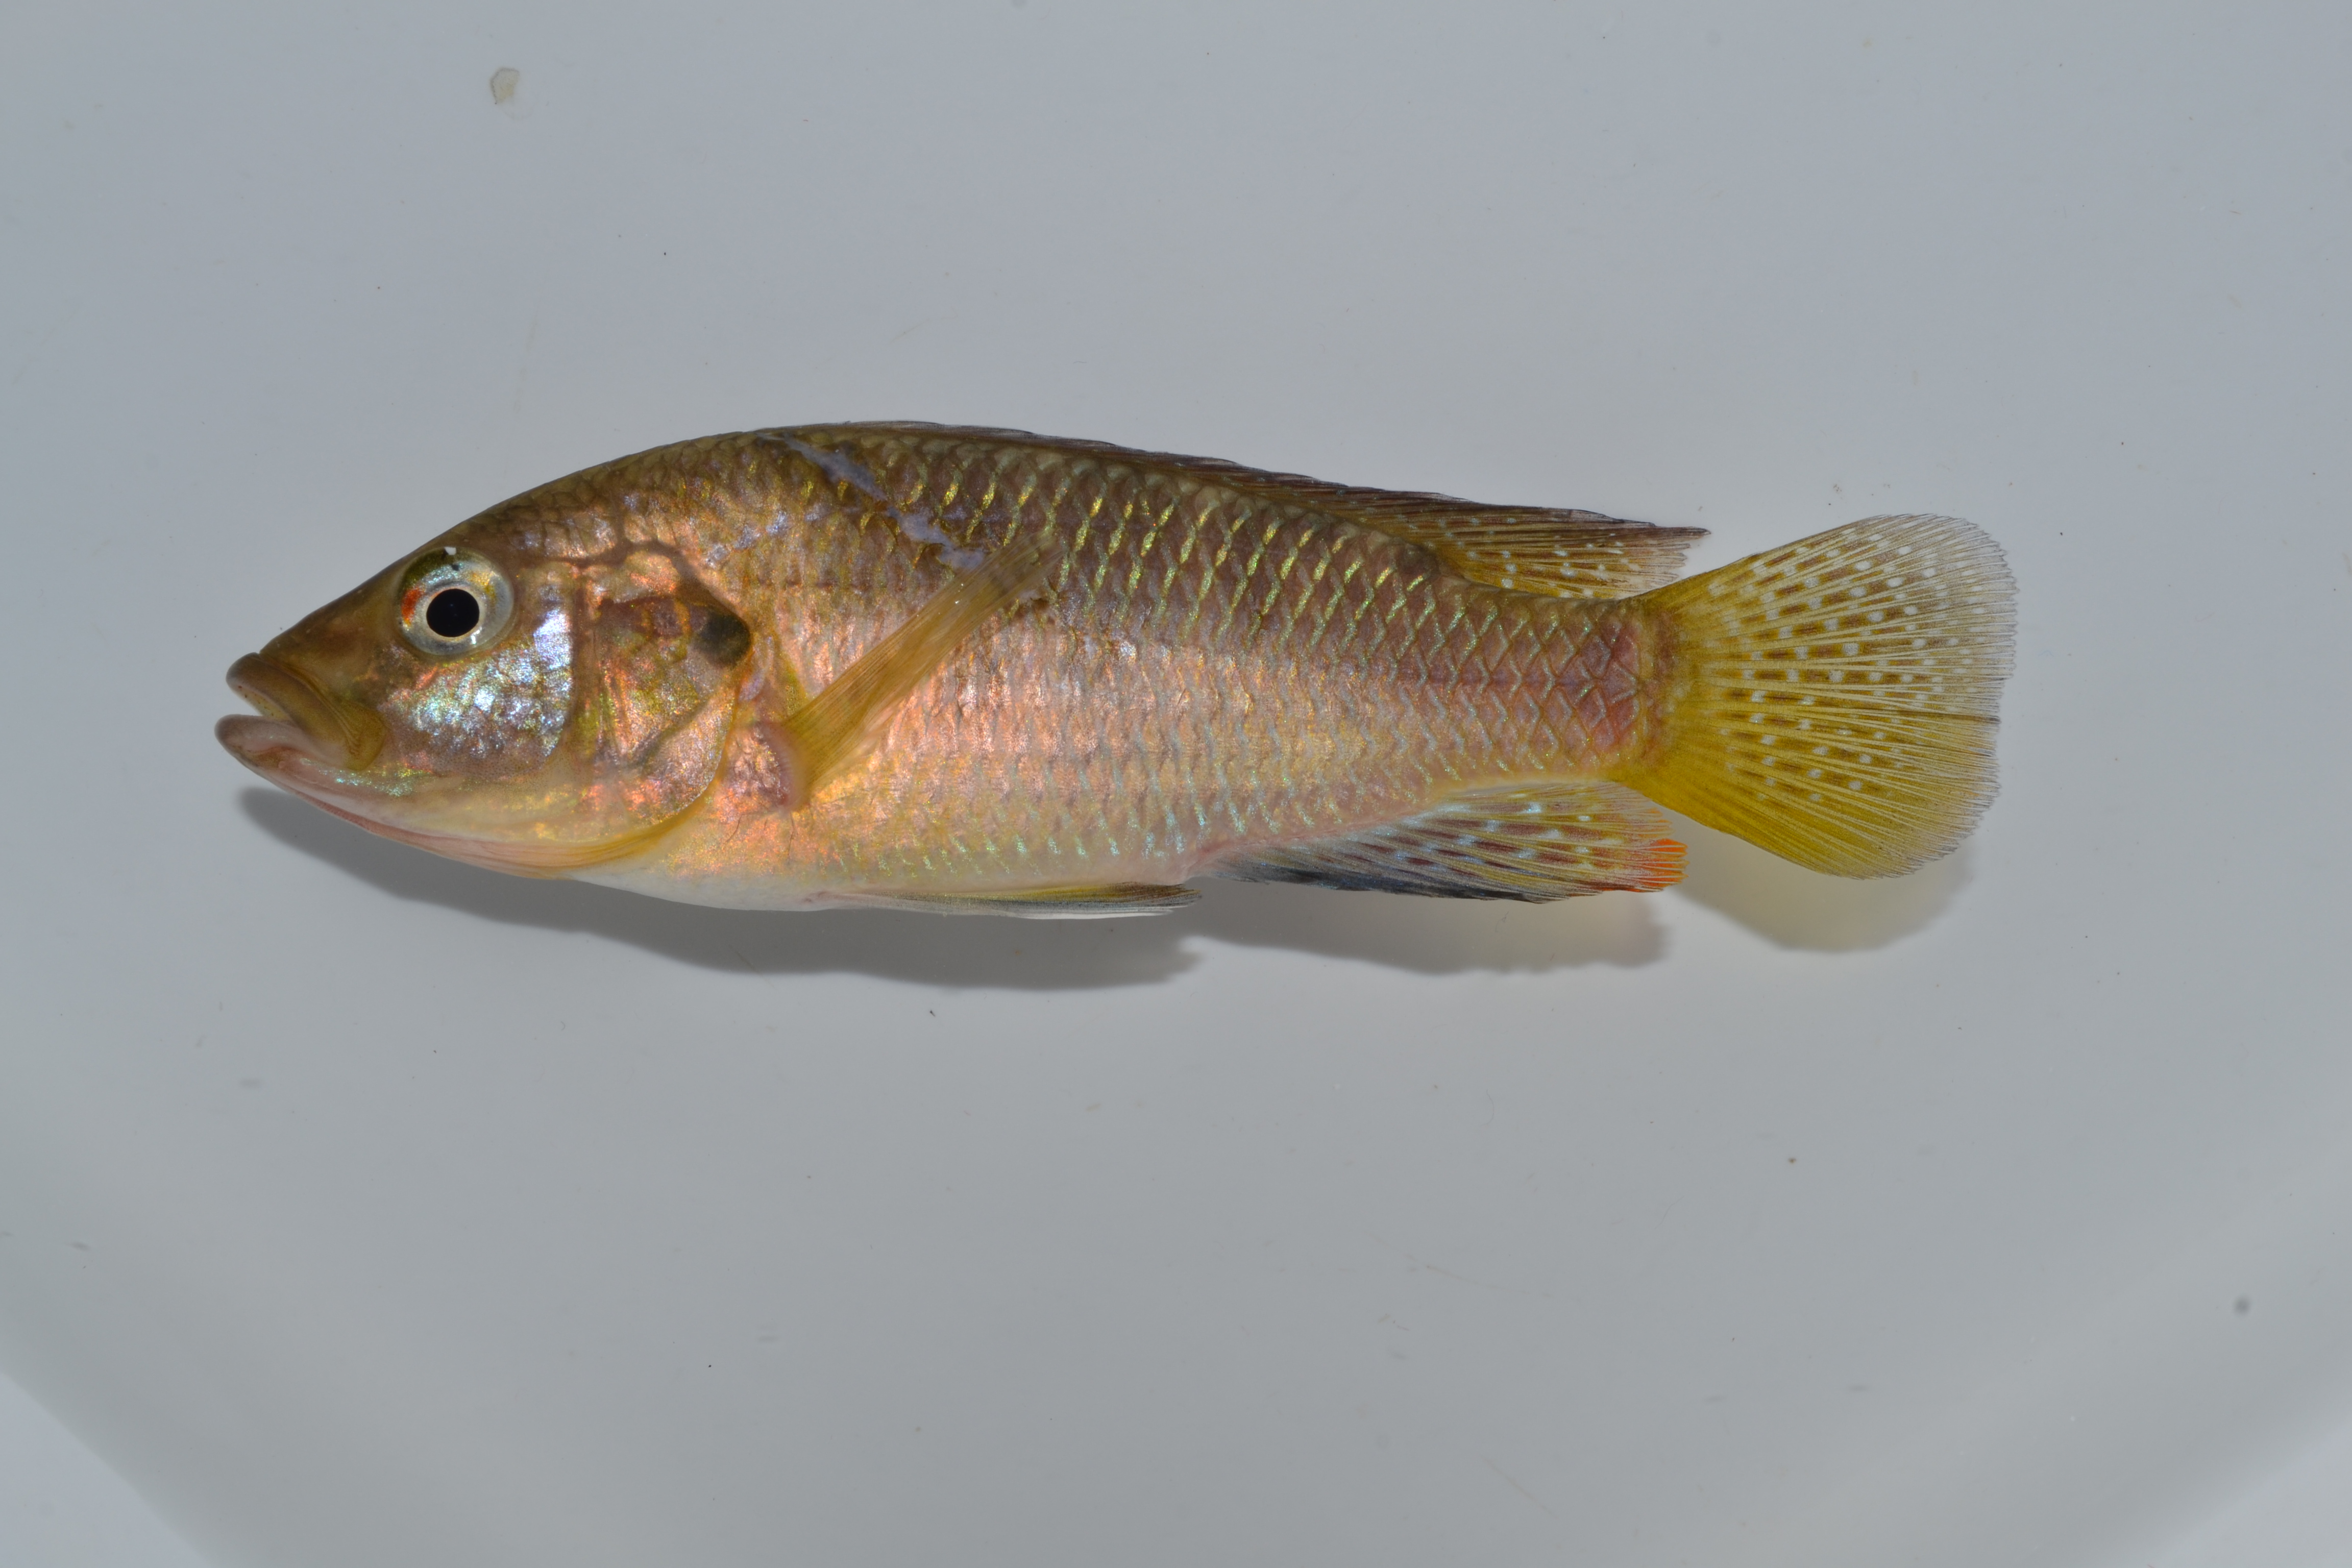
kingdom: Animalia
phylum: Chordata
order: Perciformes
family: Cichlidae
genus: Pseudocrenilabrus
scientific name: Pseudocrenilabrus philander
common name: Southern mouthbrooder
